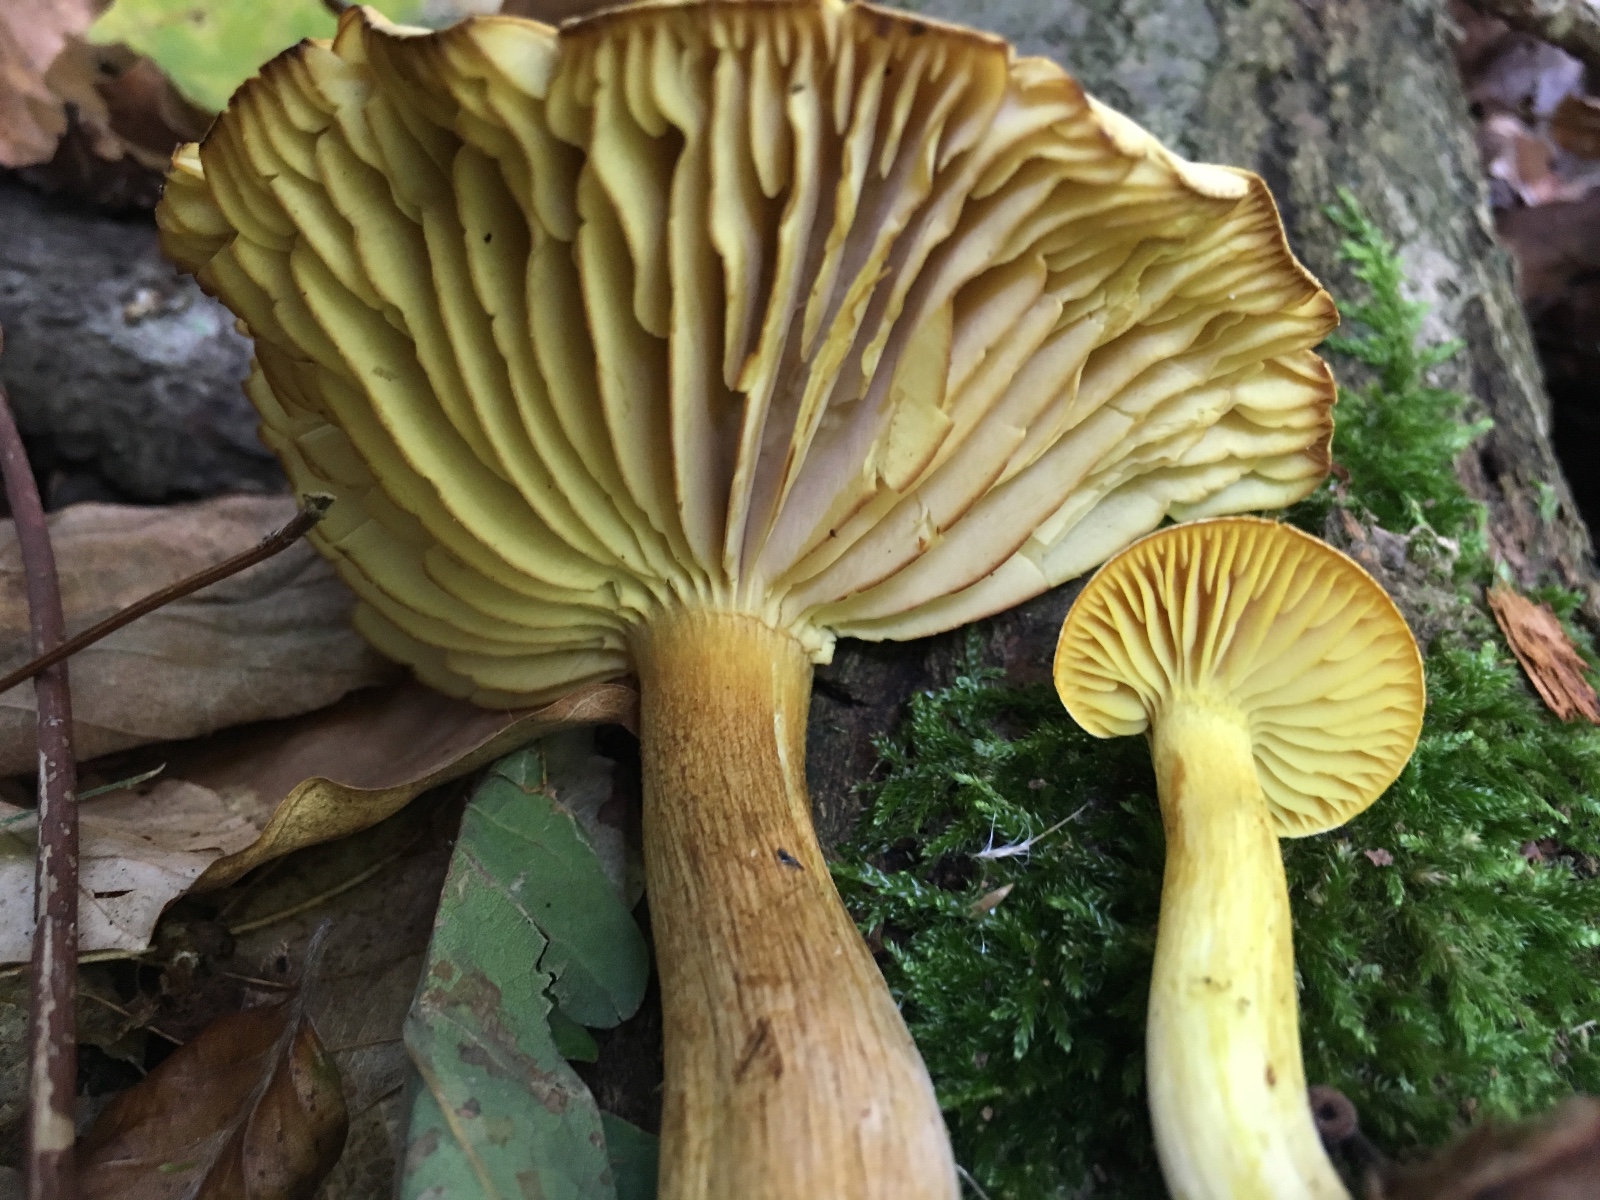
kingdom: Fungi
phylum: Basidiomycota
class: Agaricomycetes
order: Agaricales
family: Tricholomataceae
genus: Tricholoma
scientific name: Tricholoma sulphureum
